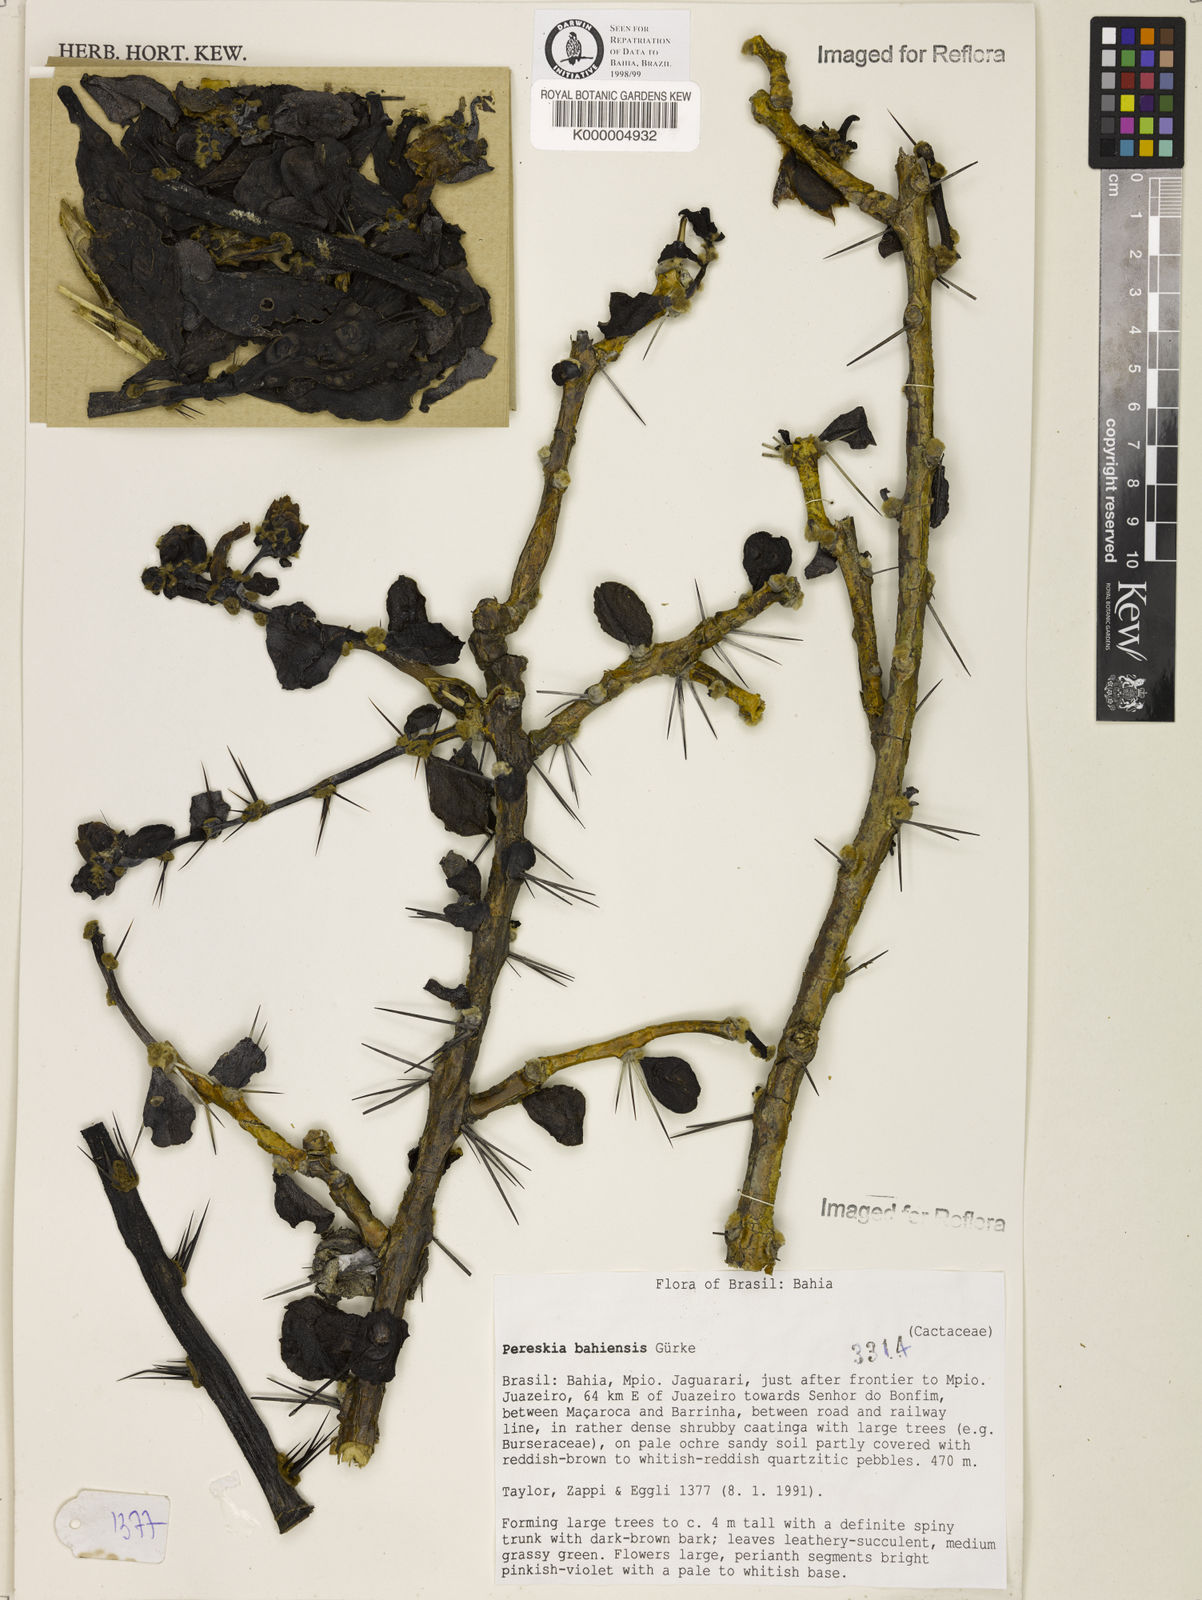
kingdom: Plantae
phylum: Tracheophyta
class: Magnoliopsida
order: Caryophyllales
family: Cactaceae
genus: Pereskia
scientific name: Pereskia
